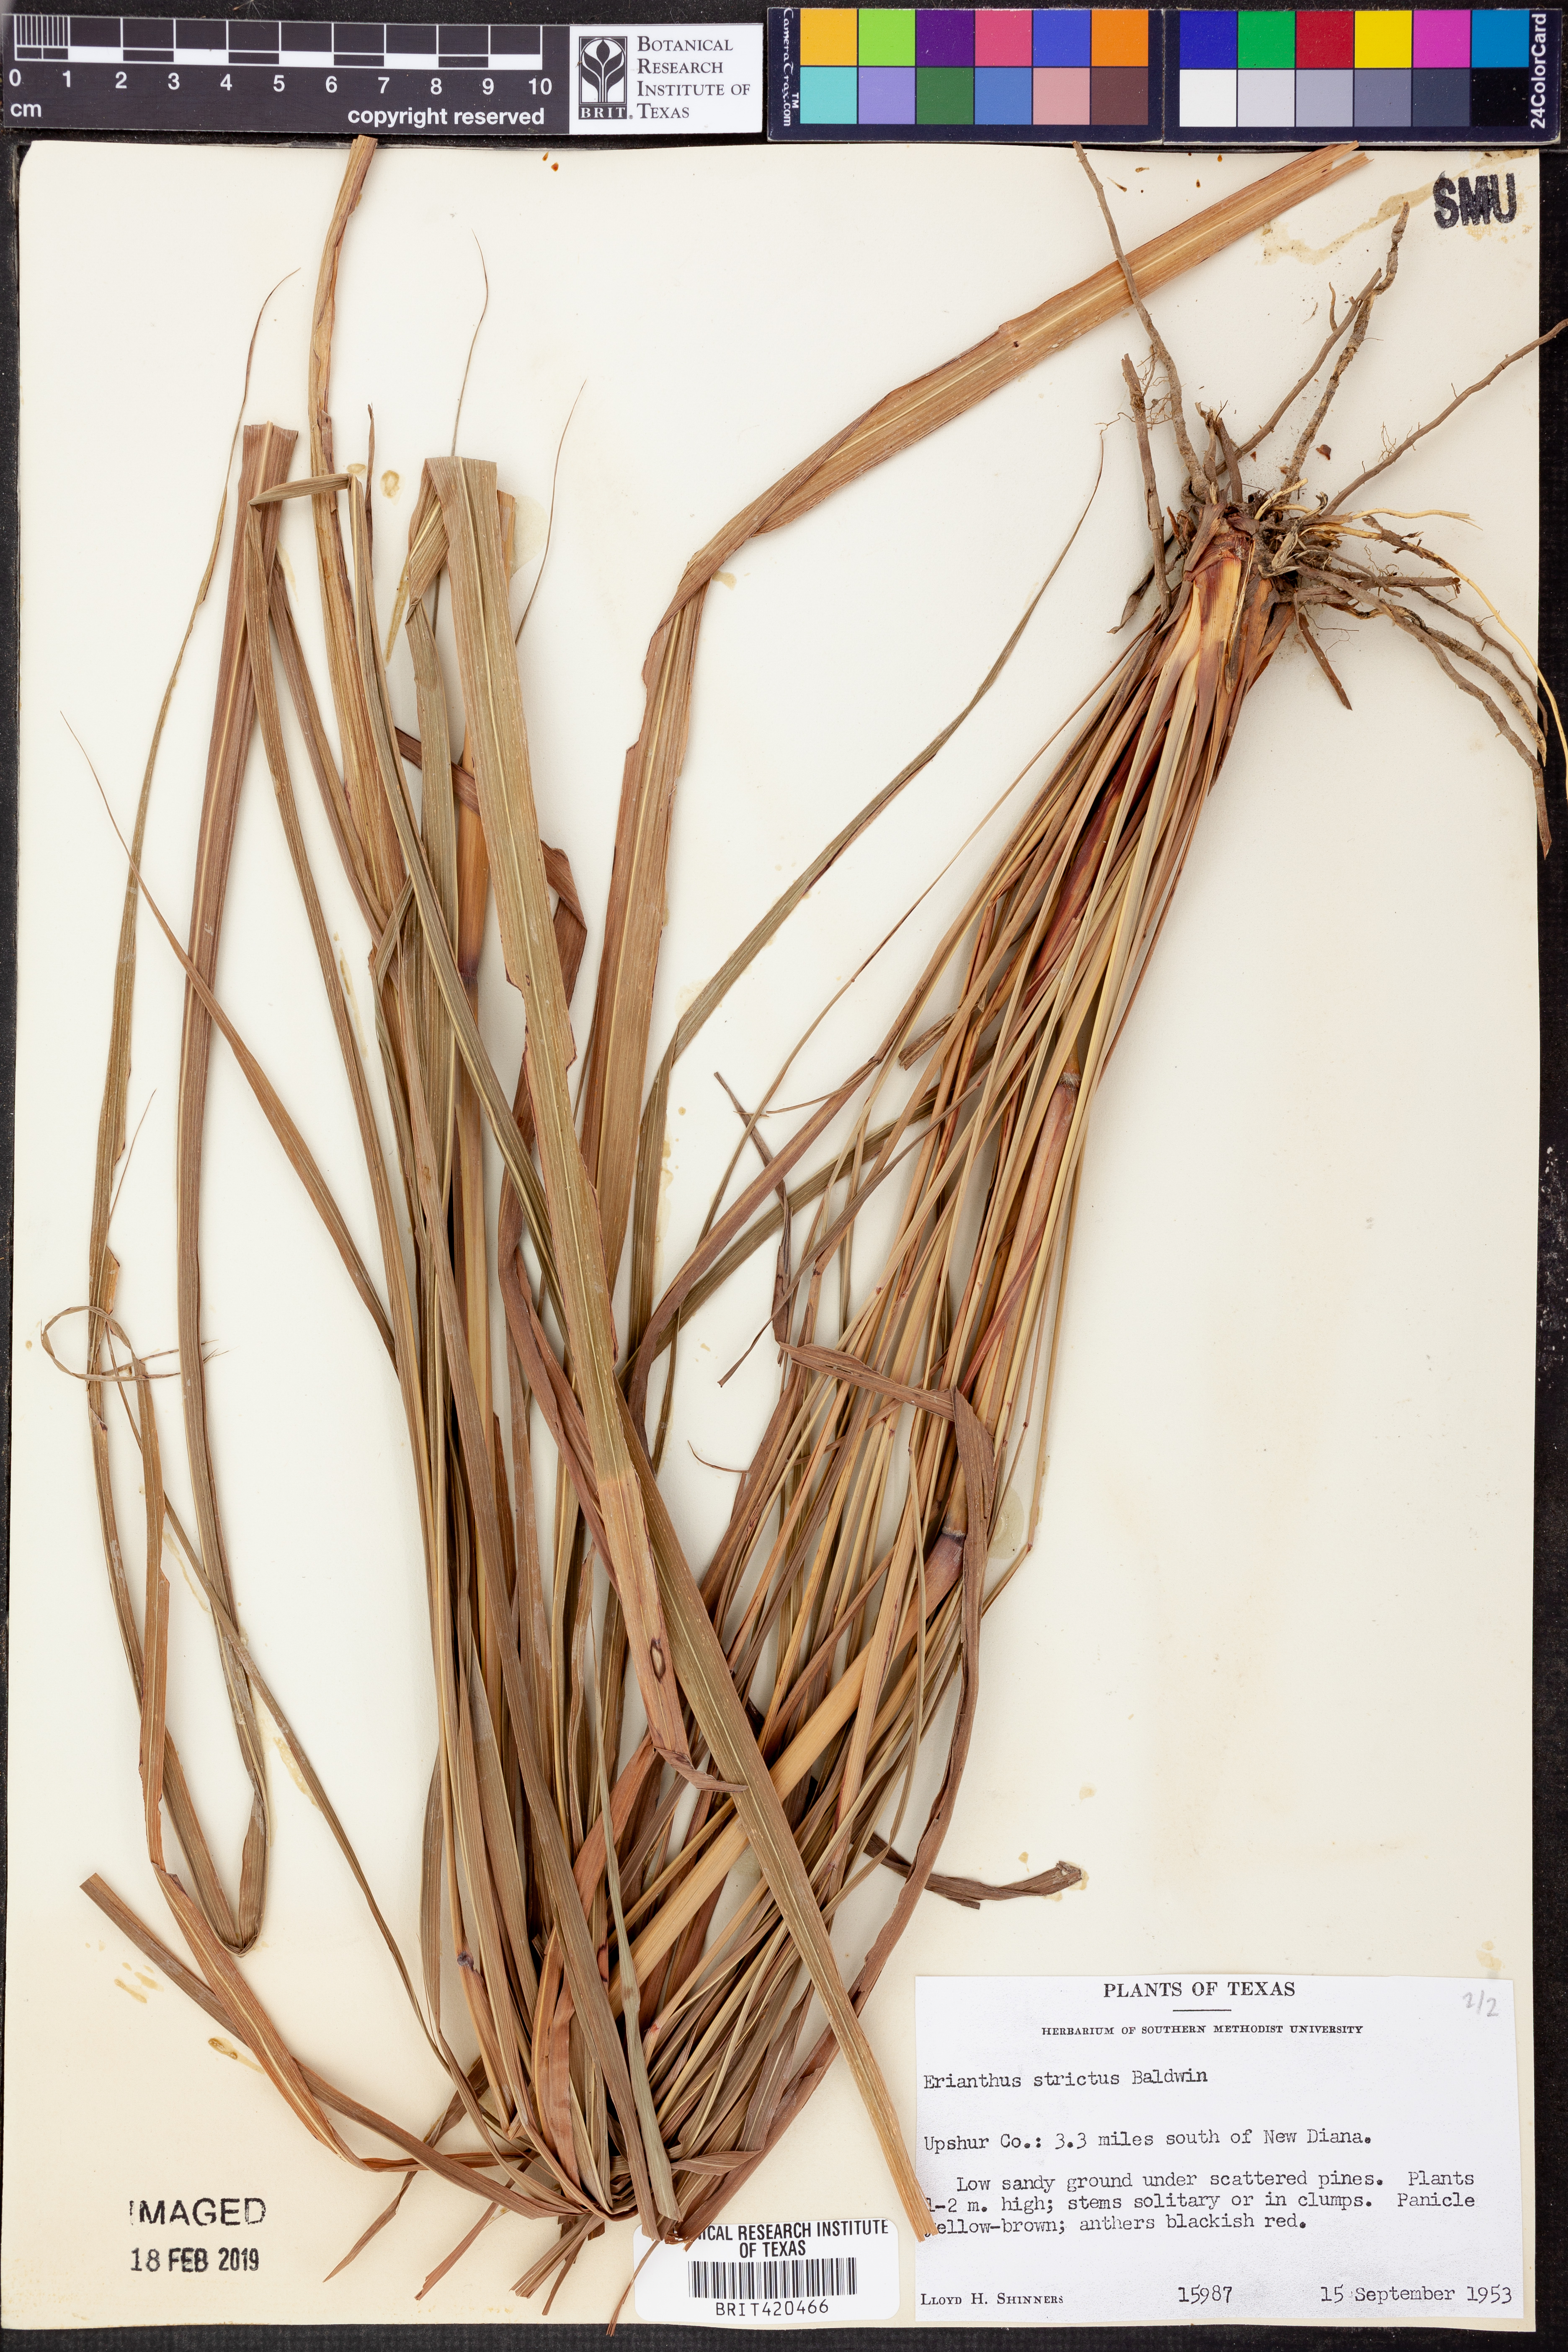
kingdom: Plantae
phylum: Tracheophyta
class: Liliopsida
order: Poales
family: Poaceae
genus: Erianthus
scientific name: Erianthus strictus
